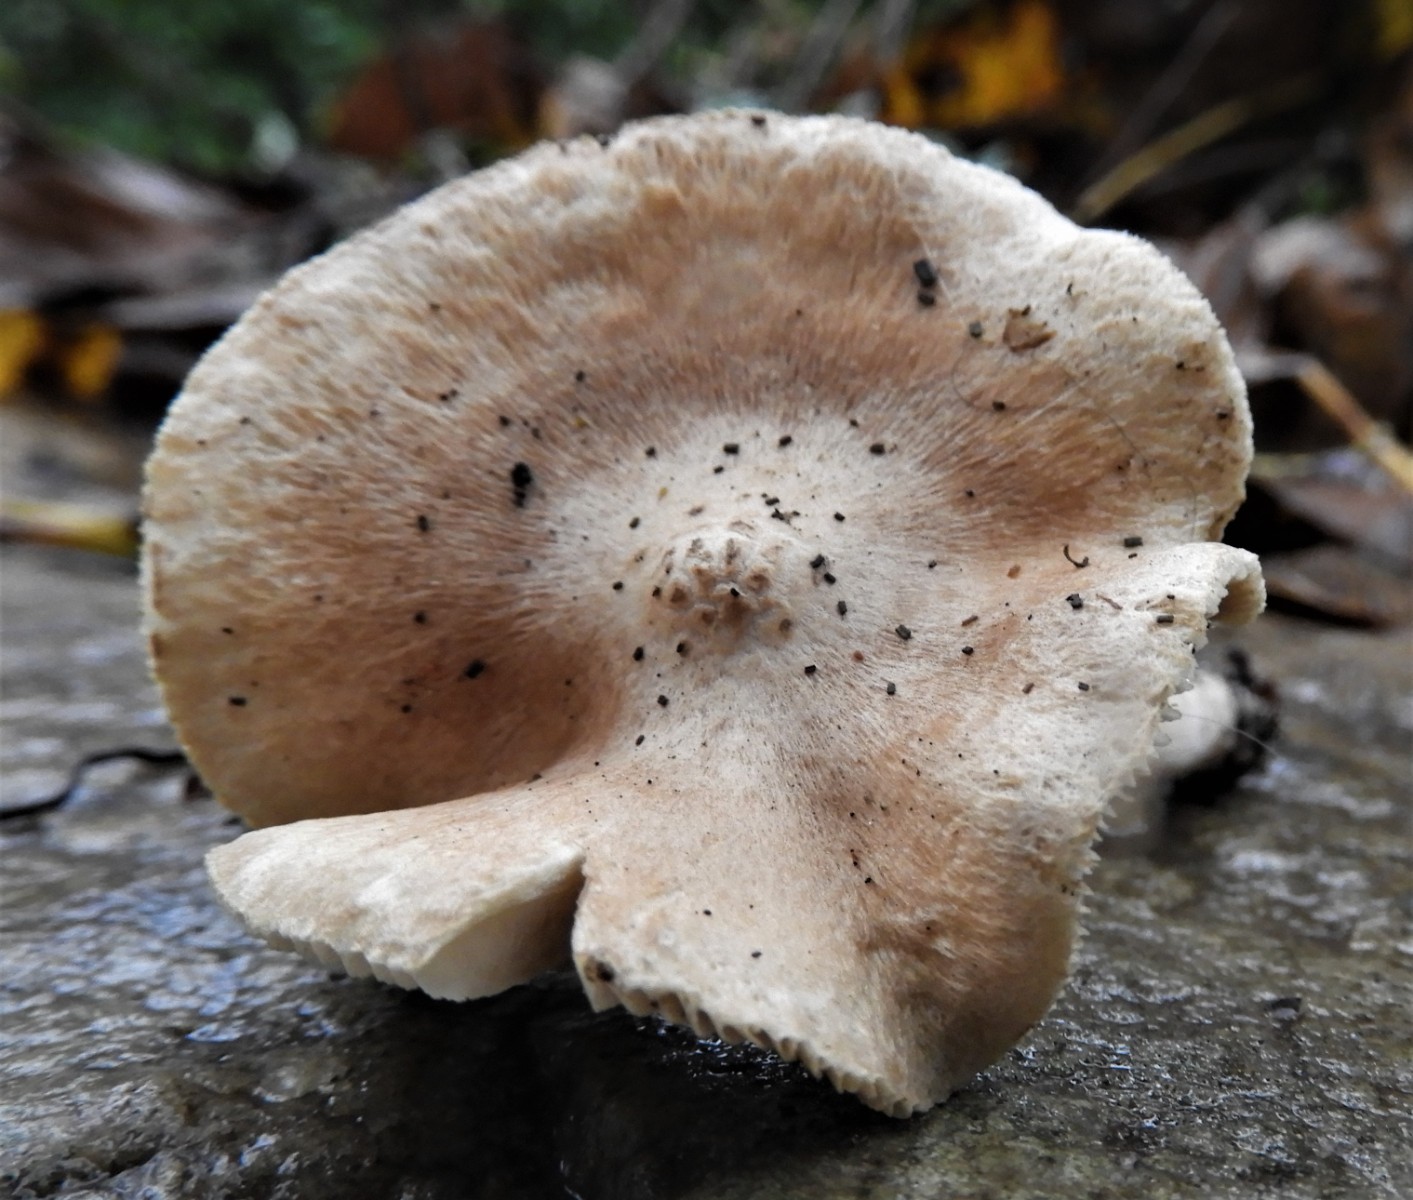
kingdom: Fungi
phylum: Basidiomycota
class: Agaricomycetes
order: Agaricales
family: Inocybaceae
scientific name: Inocybaceae
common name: trævlhatfamilien
